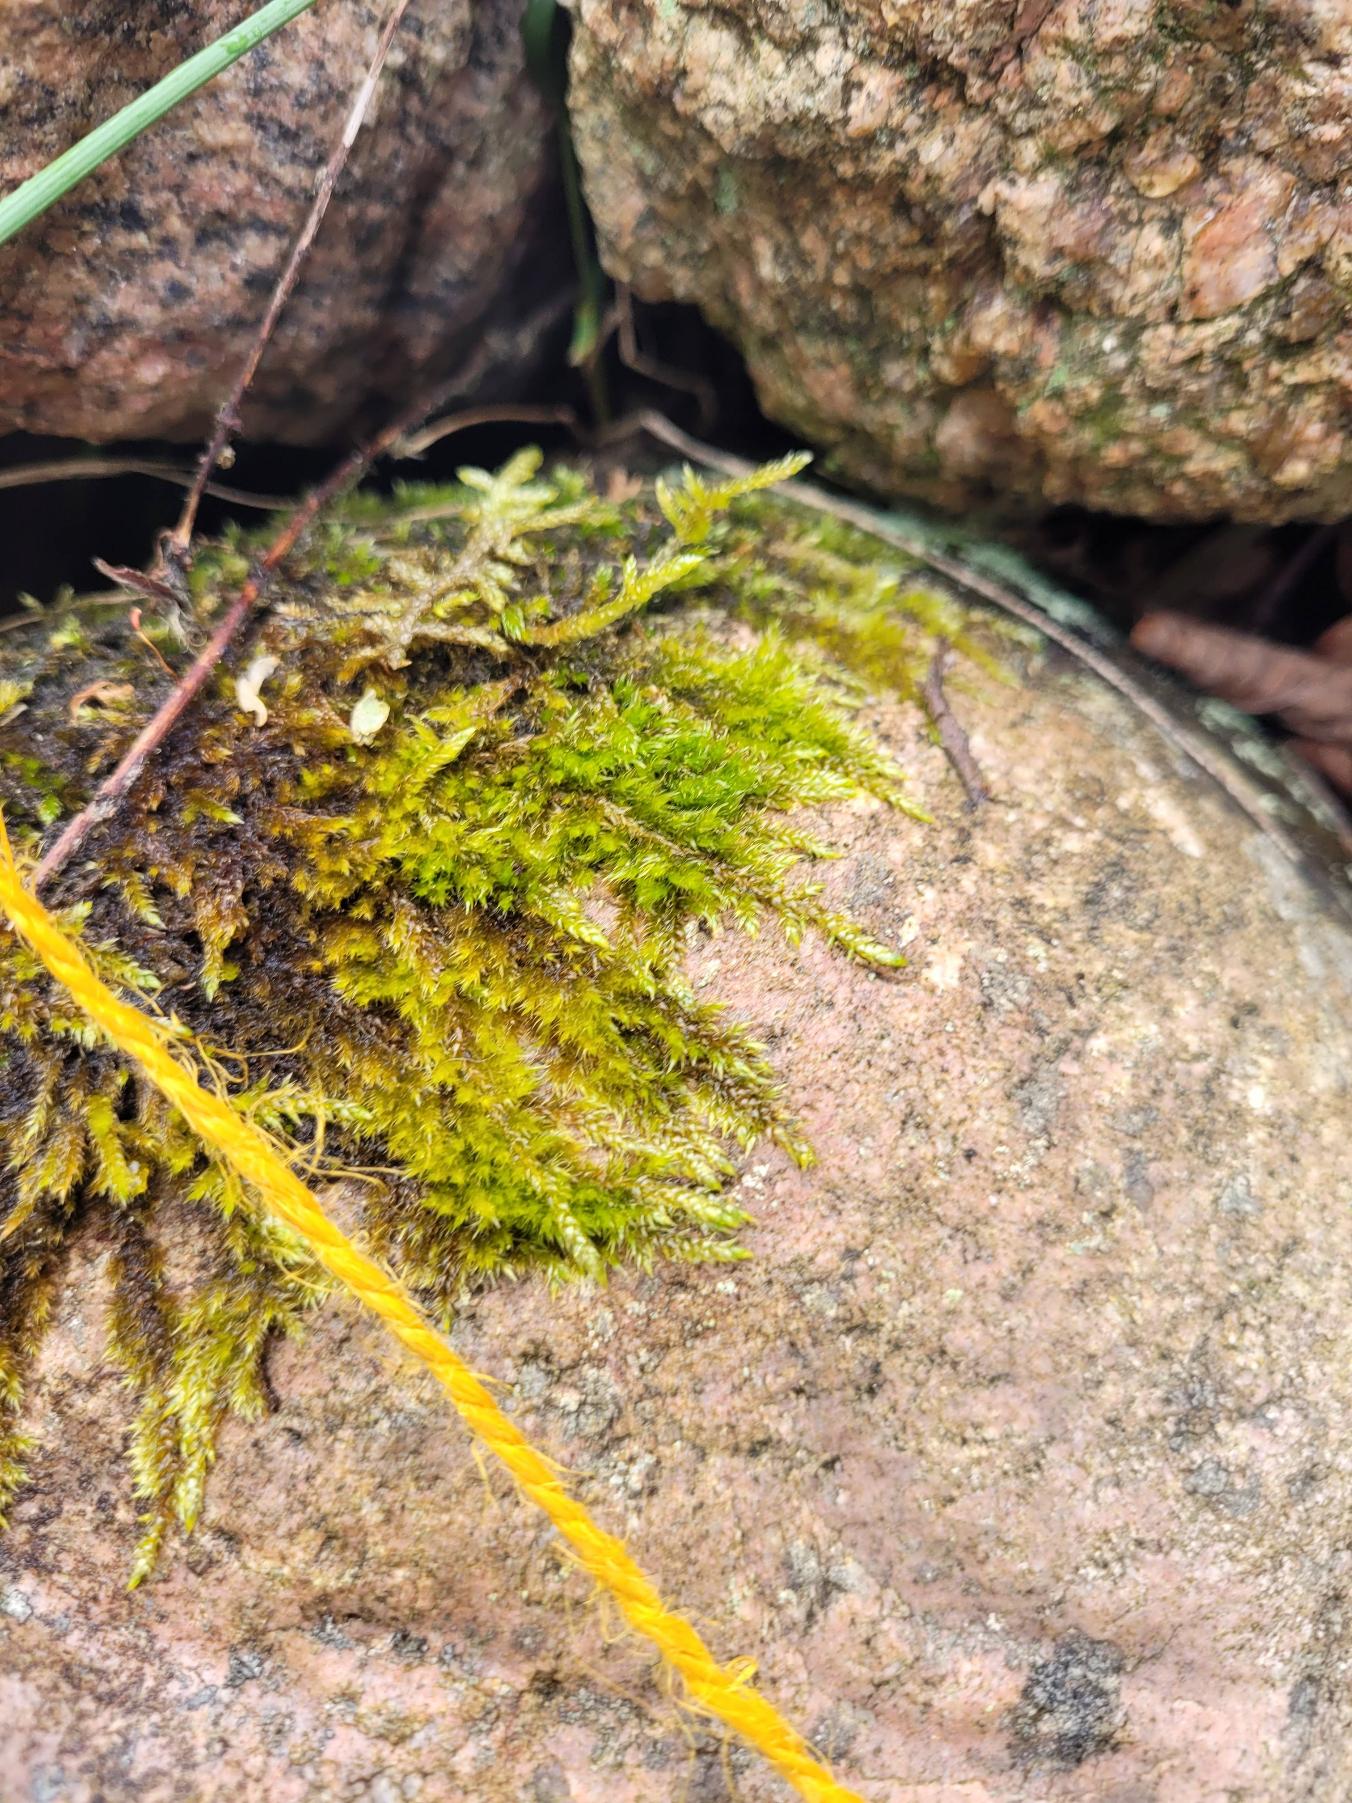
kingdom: Plantae
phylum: Bryophyta
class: Bryopsida
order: Hypnales
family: Hypnaceae
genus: Hypnum
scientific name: Hypnum cupressiforme
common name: Almindelig cypresmos
